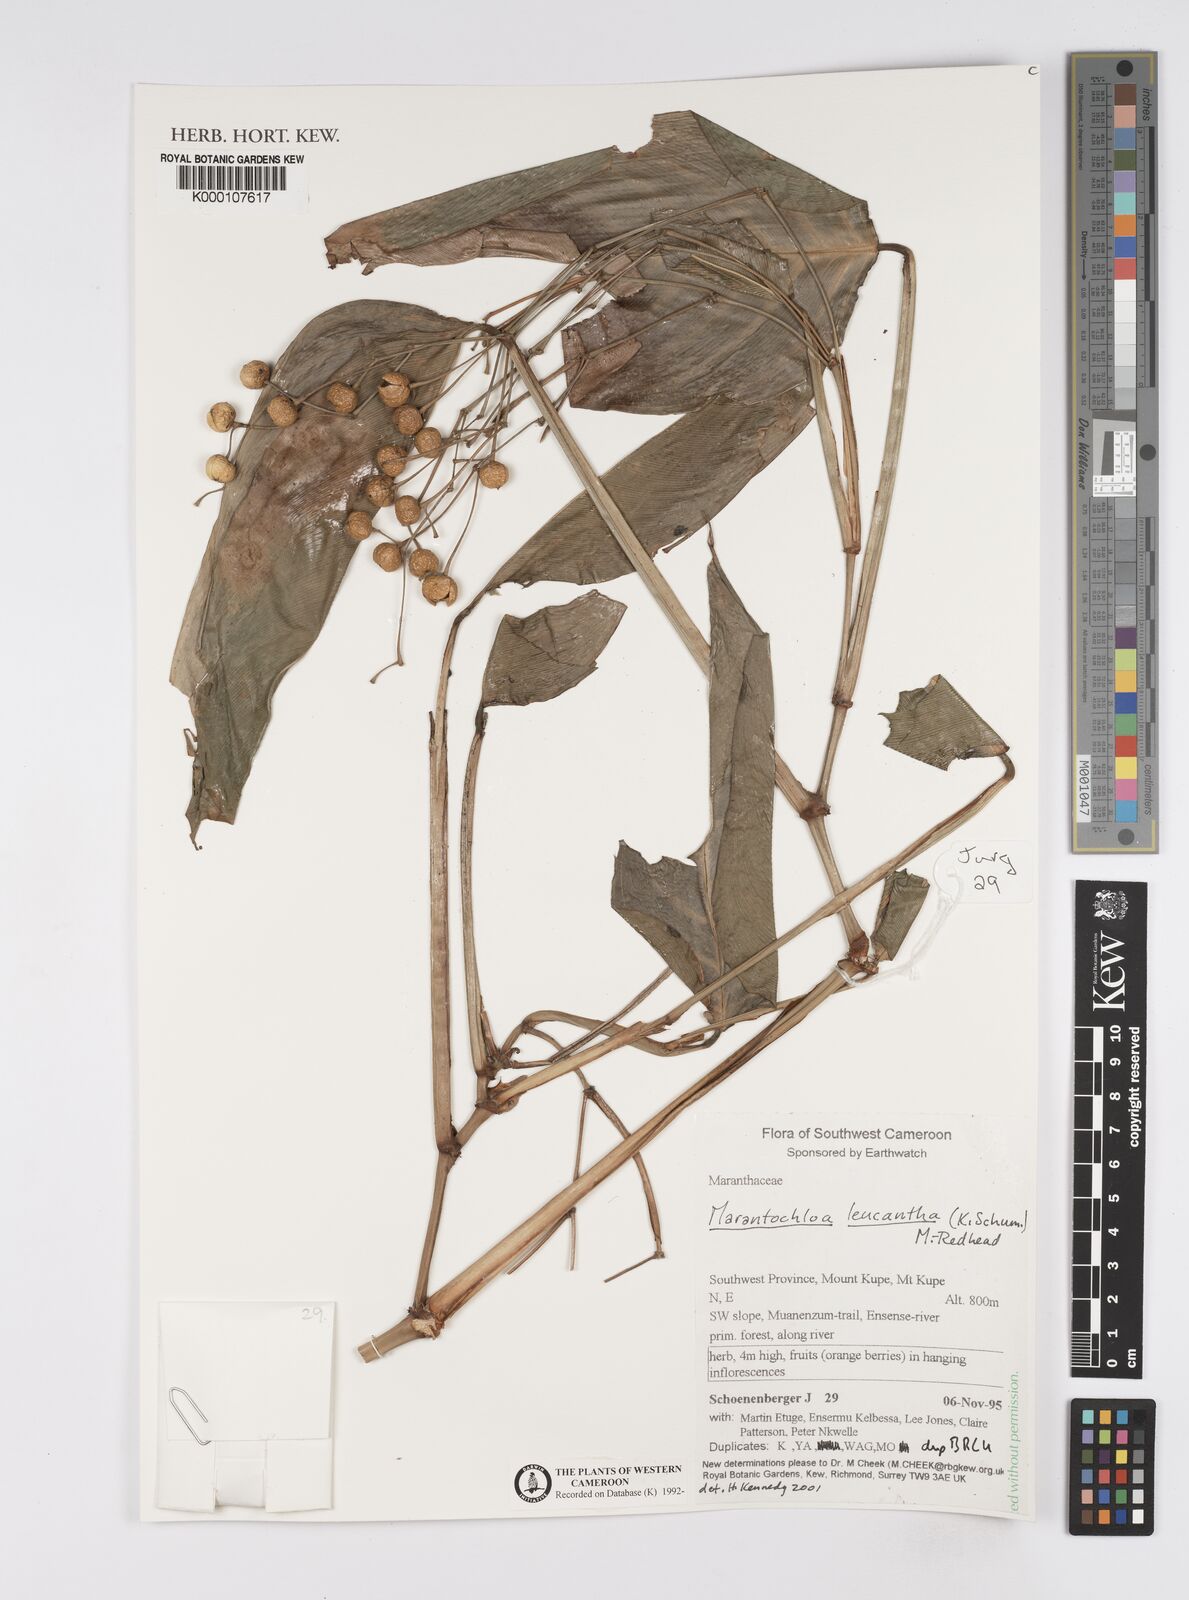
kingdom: Plantae
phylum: Tracheophyta
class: Liliopsida
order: Zingiberales
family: Marantaceae
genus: Marantochloa
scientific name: Marantochloa leucantha
